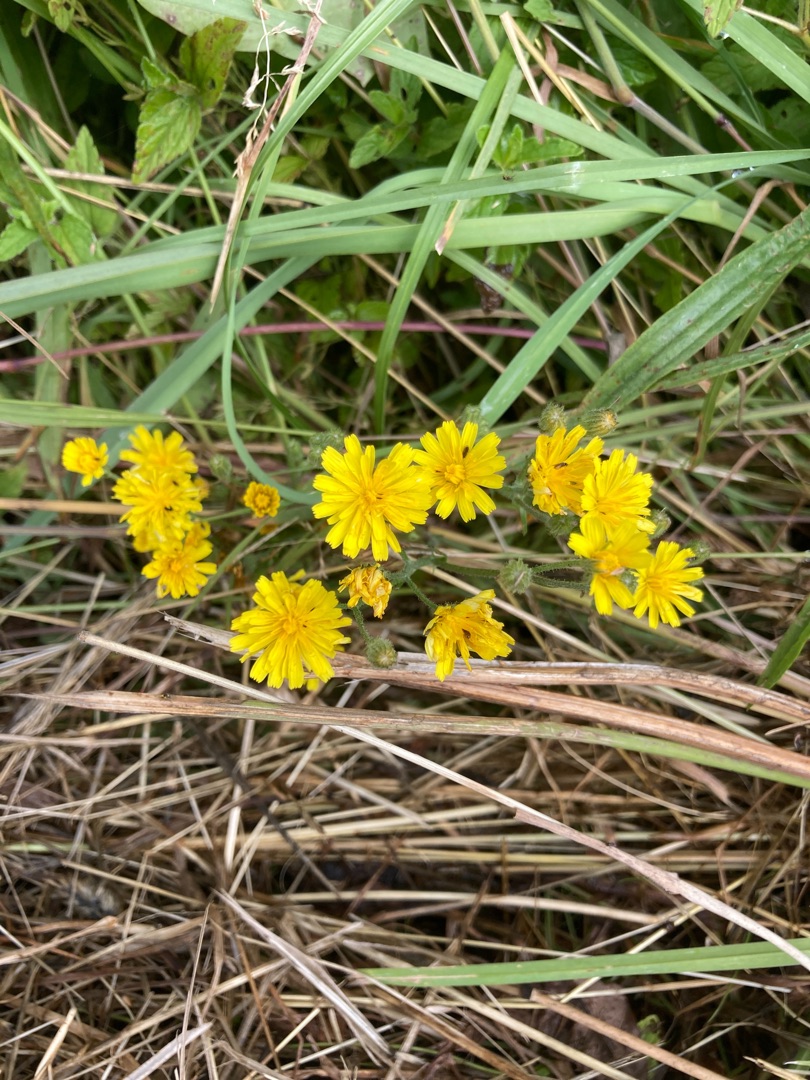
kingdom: Plantae
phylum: Tracheophyta
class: Magnoliopsida
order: Asterales
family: Asteraceae
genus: Crepis
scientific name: Crepis capillaris
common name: Grøn høgeskæg
